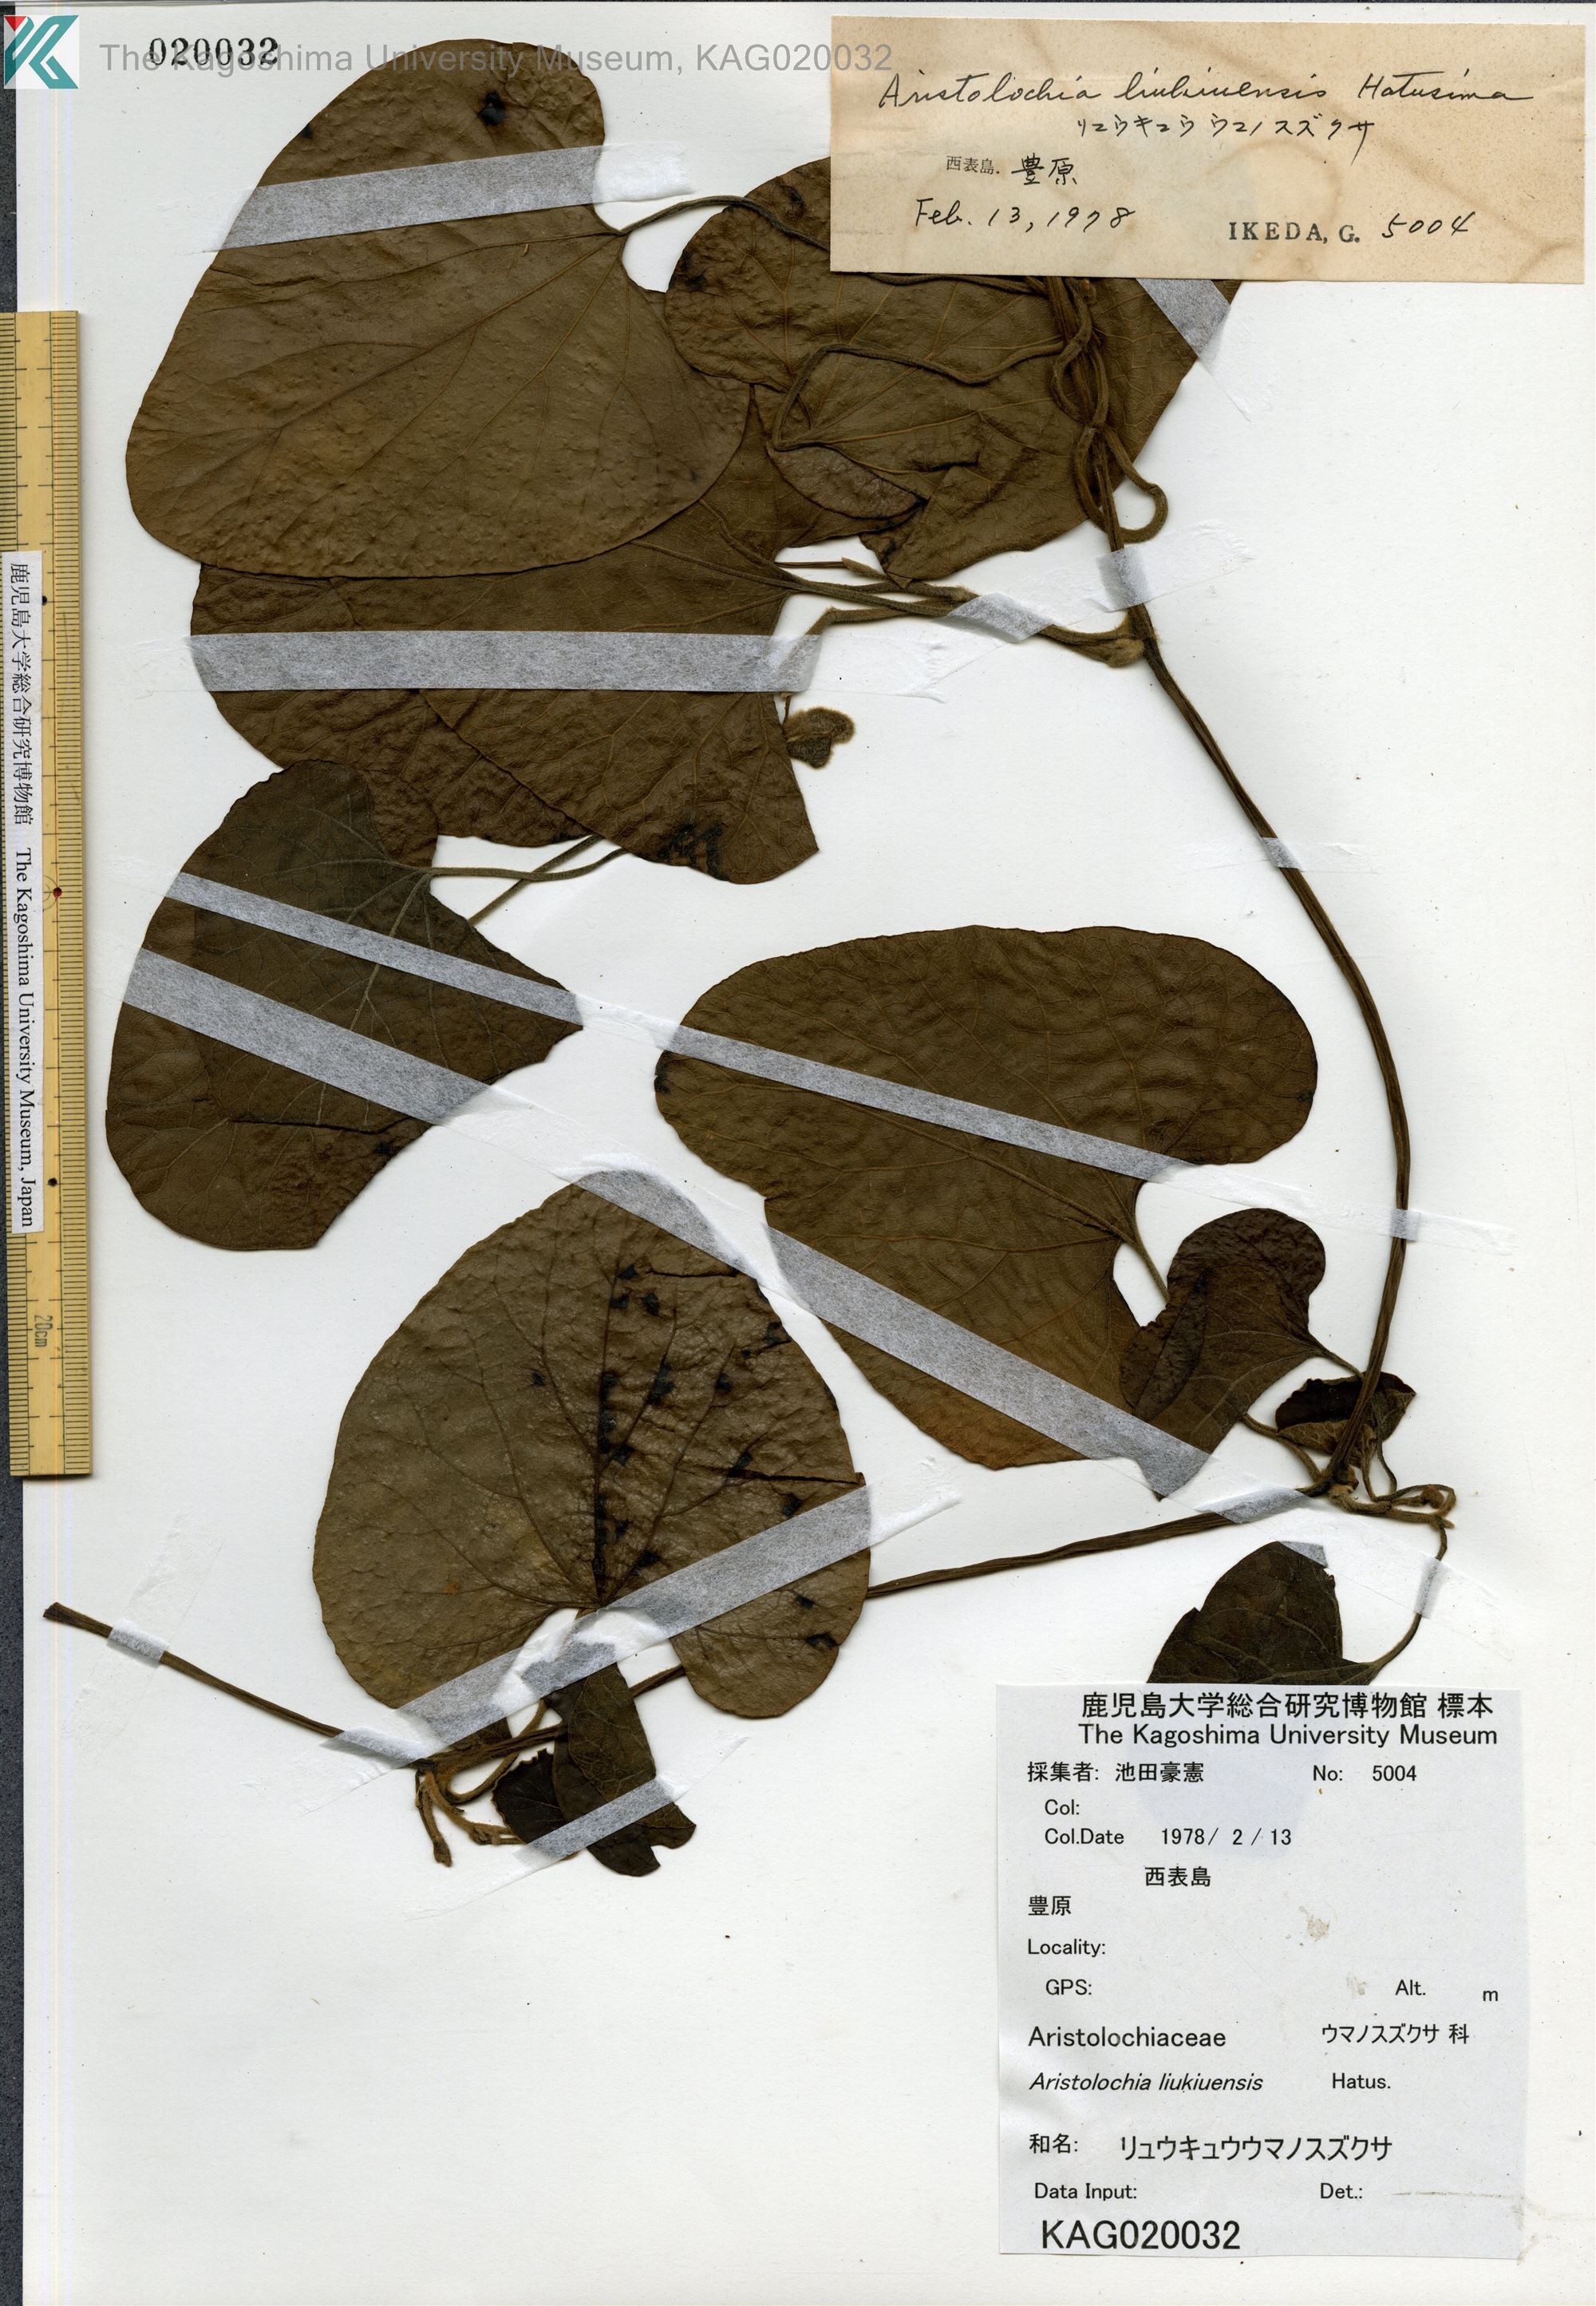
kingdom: Plantae
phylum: Tracheophyta
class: Magnoliopsida
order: Piperales
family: Aristolochiaceae
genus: Isotrema
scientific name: Isotrema liukiuense
